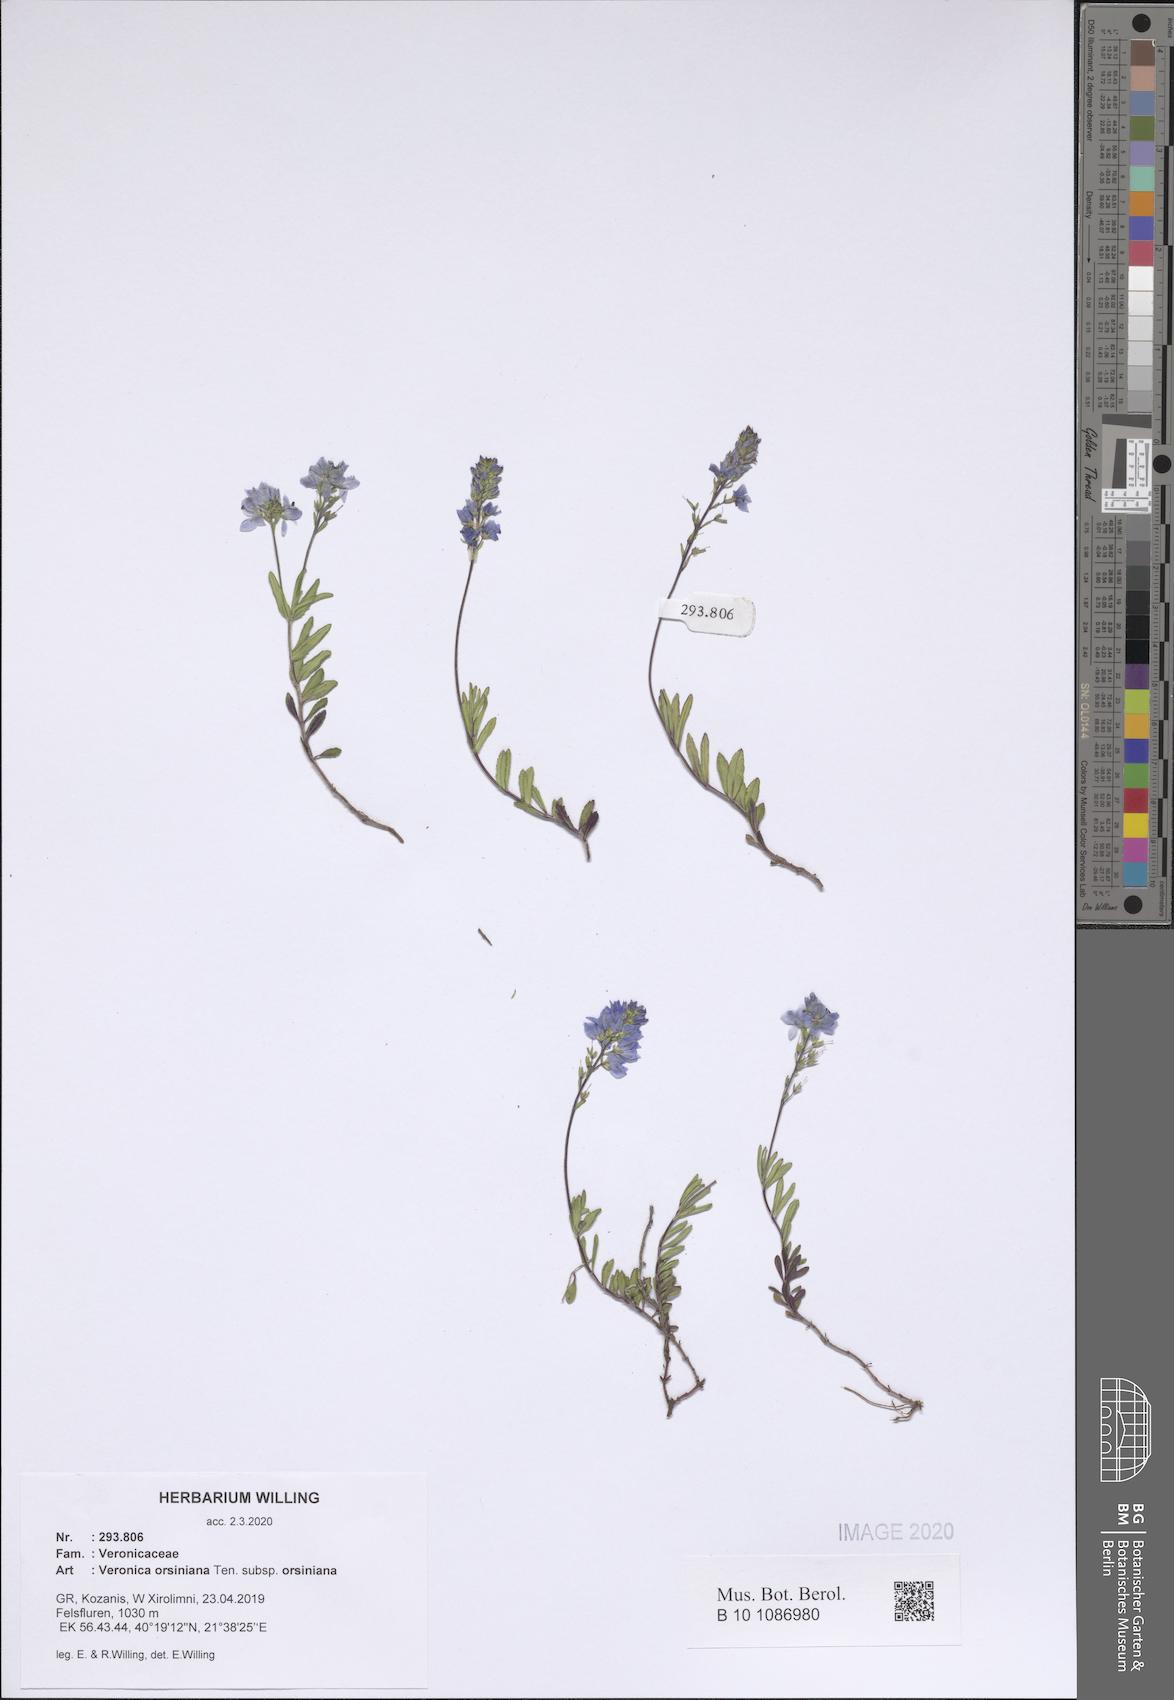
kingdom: Plantae
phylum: Tracheophyta
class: Magnoliopsida
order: Lamiales
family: Plantaginaceae
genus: Veronica
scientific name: Veronica orsiniana
